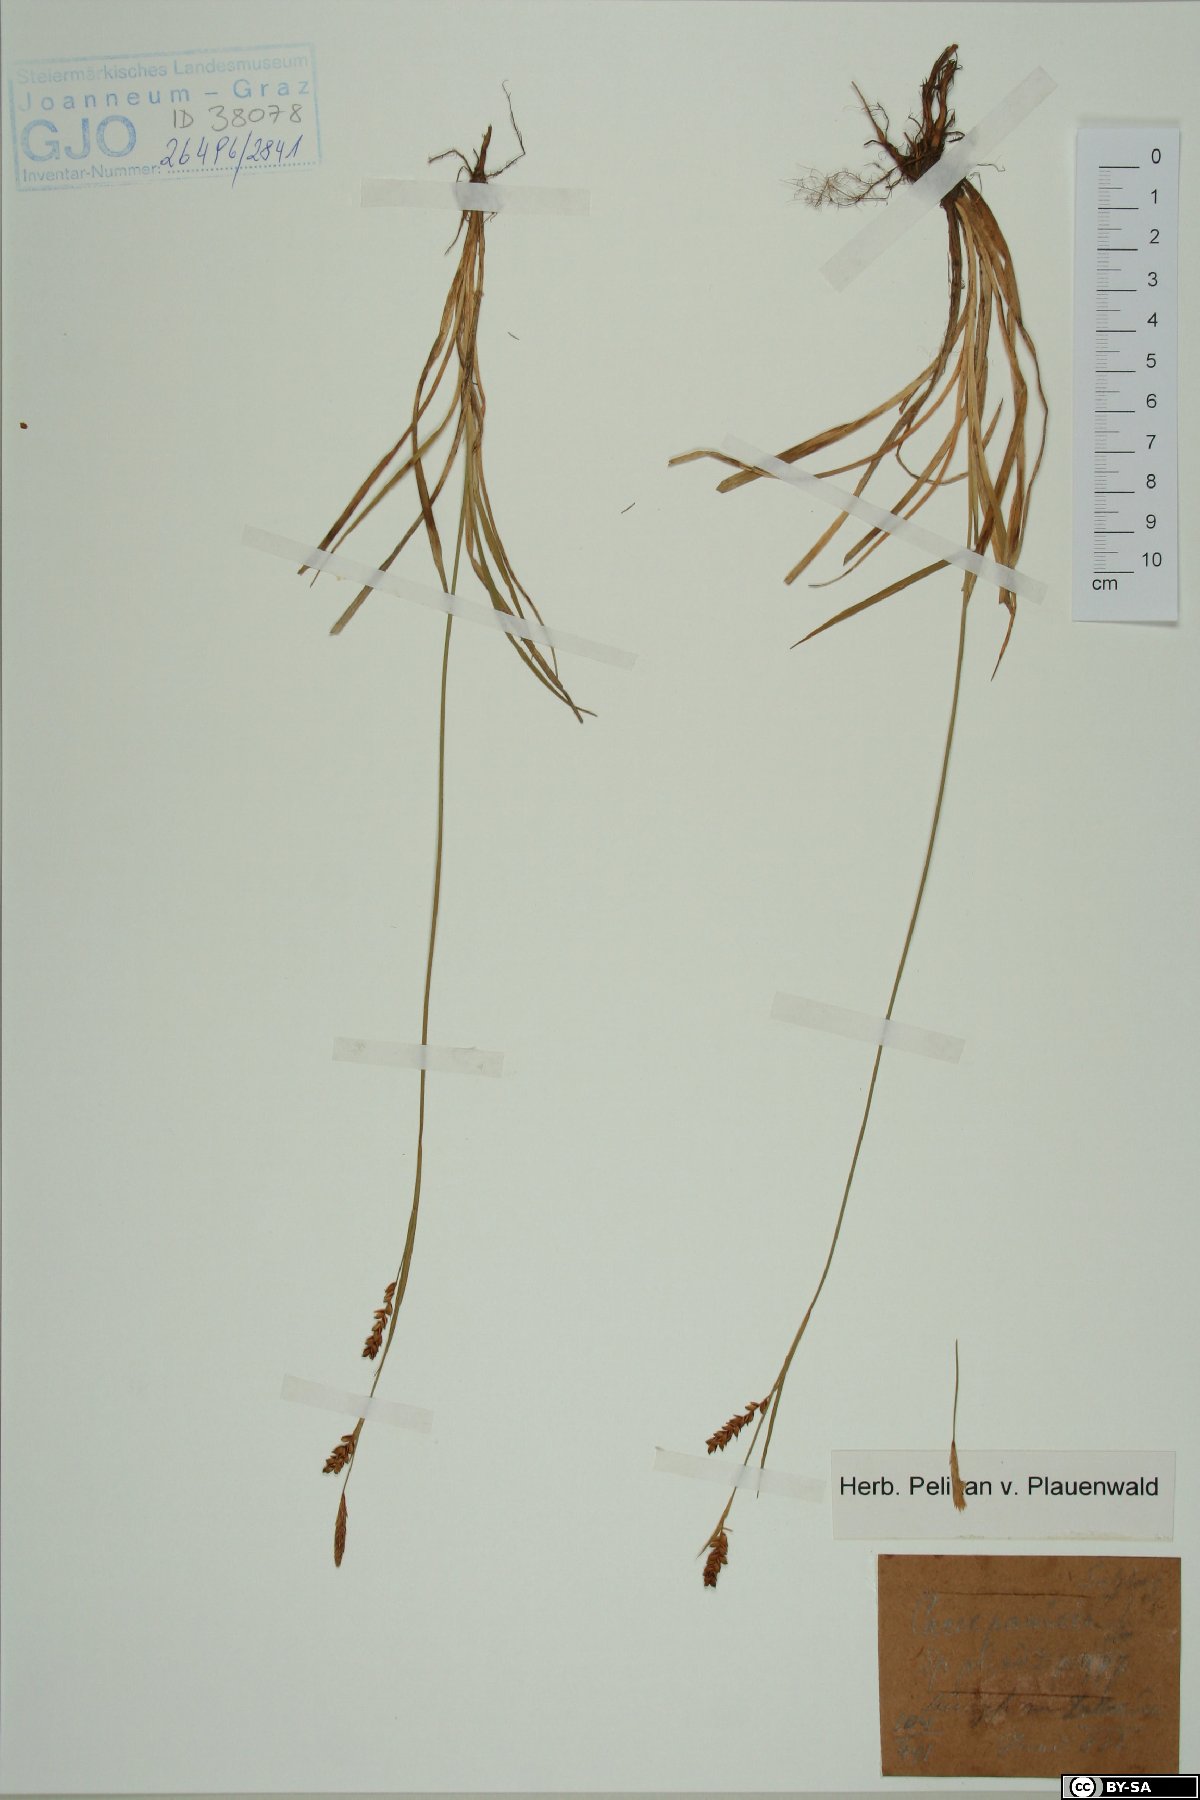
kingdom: Plantae
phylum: Tracheophyta
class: Liliopsida
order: Poales
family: Cyperaceae
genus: Carex
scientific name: Carex panicea
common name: Carnation sedge
